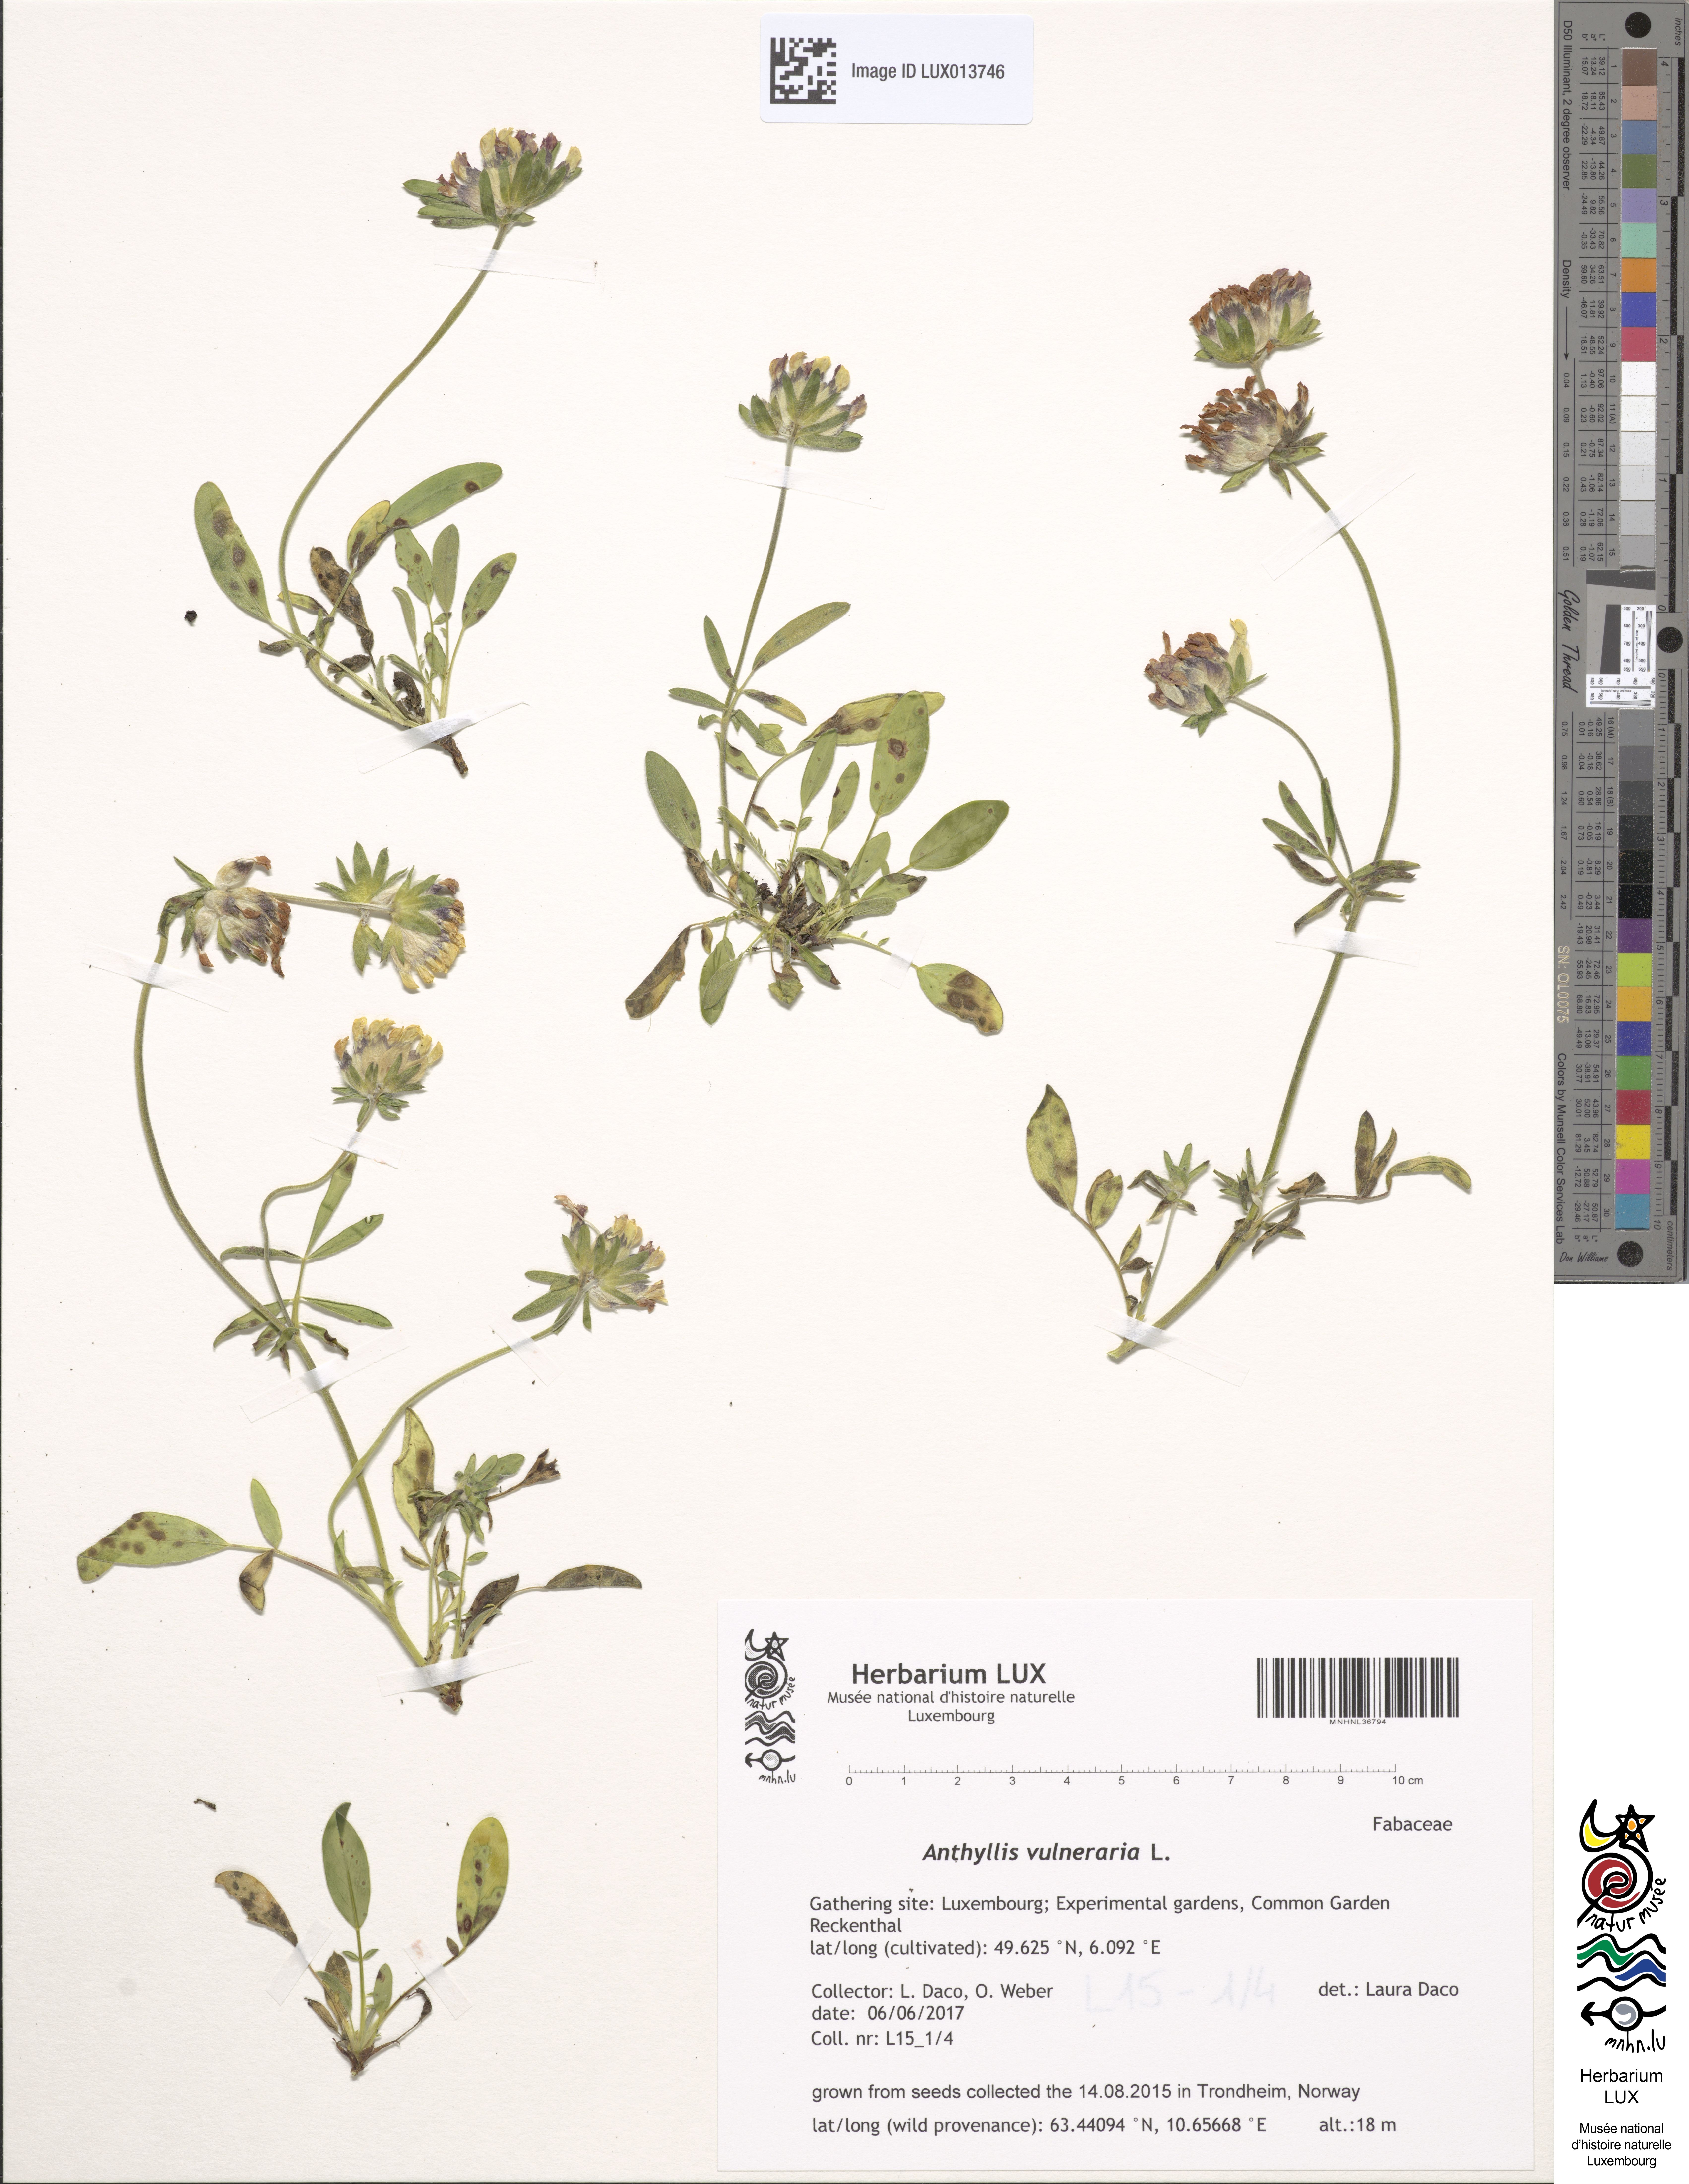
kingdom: Plantae
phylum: Tracheophyta
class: Magnoliopsida
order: Fabales
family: Fabaceae
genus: Anthyllis
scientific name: Anthyllis vulneraria
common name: Kidney vetch
